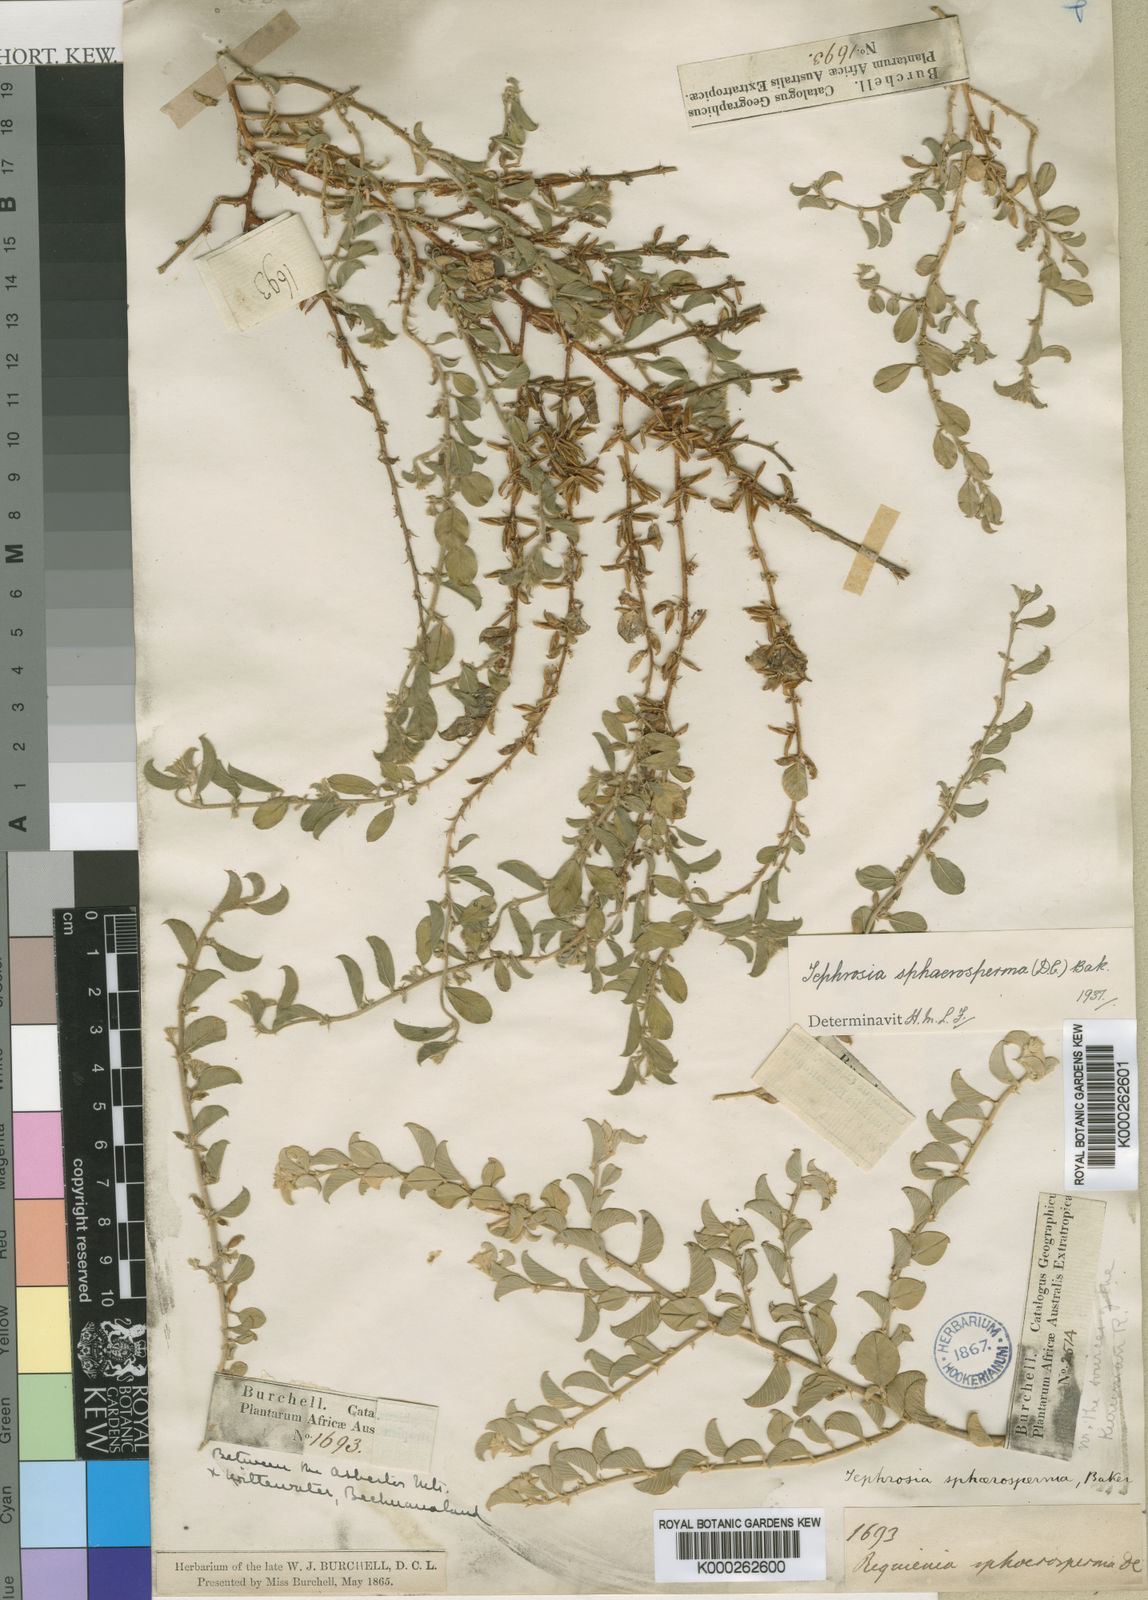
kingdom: Plantae
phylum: Tracheophyta
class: Magnoliopsida
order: Fabales
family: Fabaceae
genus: Requienia
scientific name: Requienia sphaerosperma
